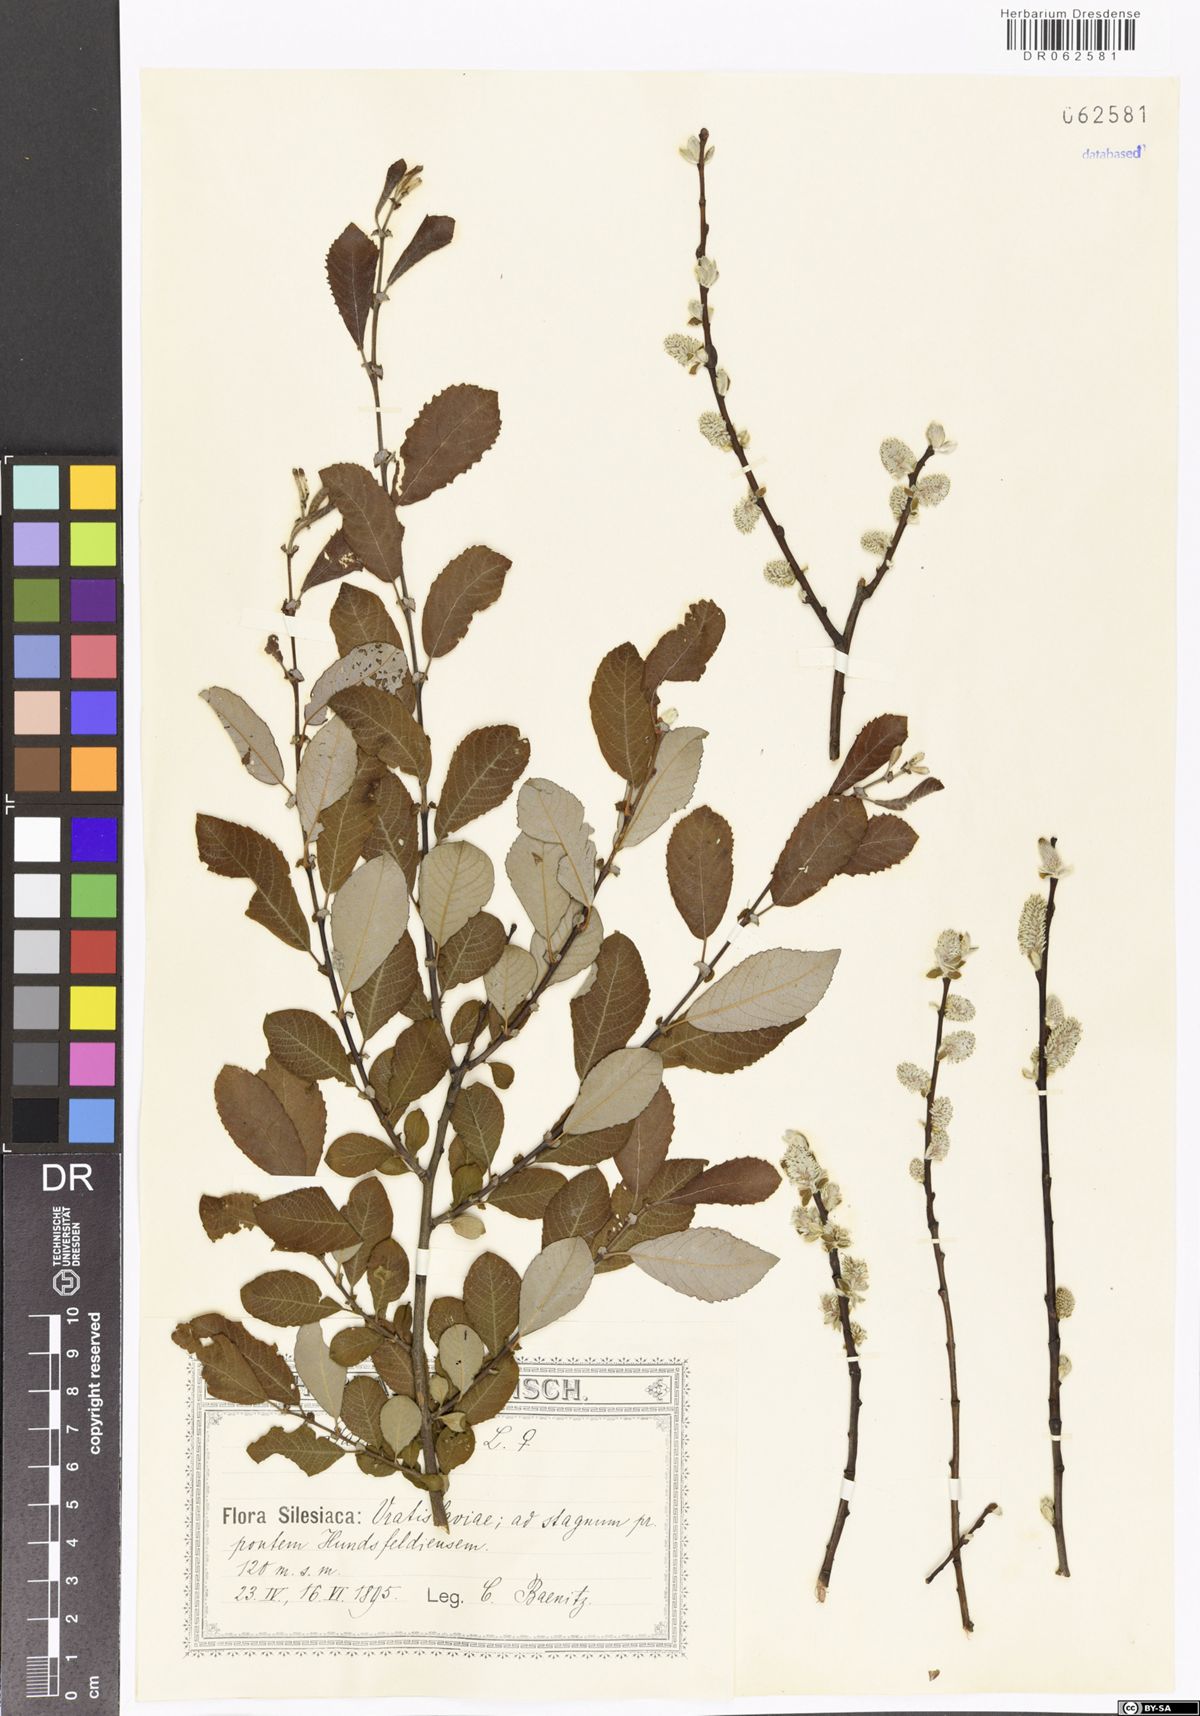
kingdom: Plantae
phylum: Tracheophyta
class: Magnoliopsida
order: Malpighiales
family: Salicaceae
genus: Salix
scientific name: Salix aurita
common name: Eared willow
